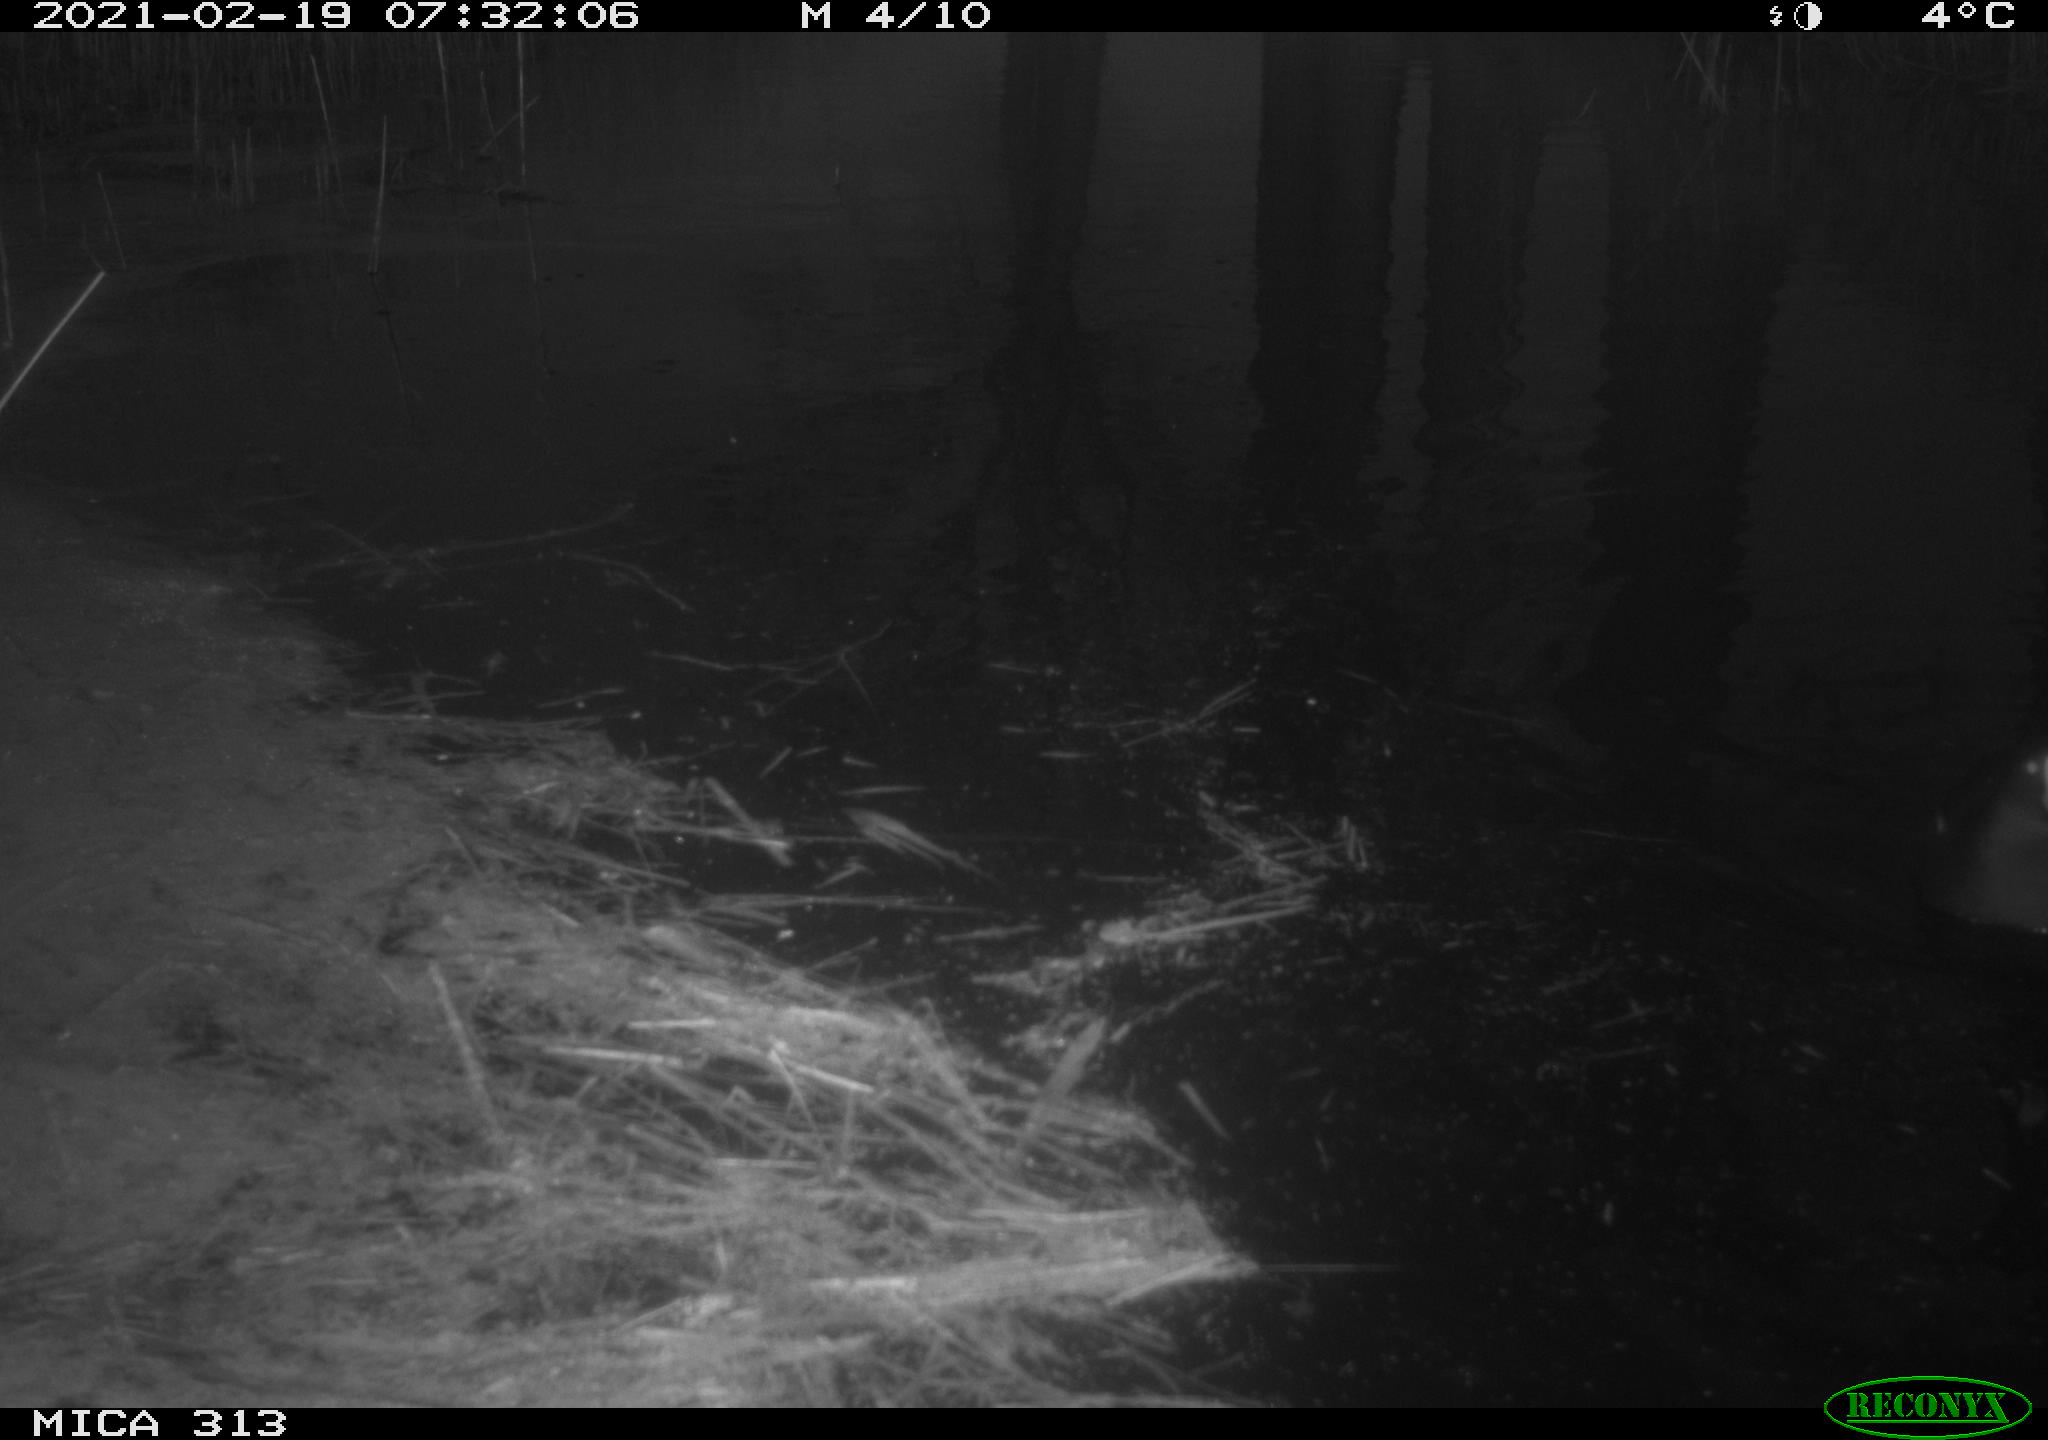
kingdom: Animalia
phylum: Chordata
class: Aves
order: Gruiformes
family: Rallidae
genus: Gallinula
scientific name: Gallinula chloropus
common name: Common moorhen
